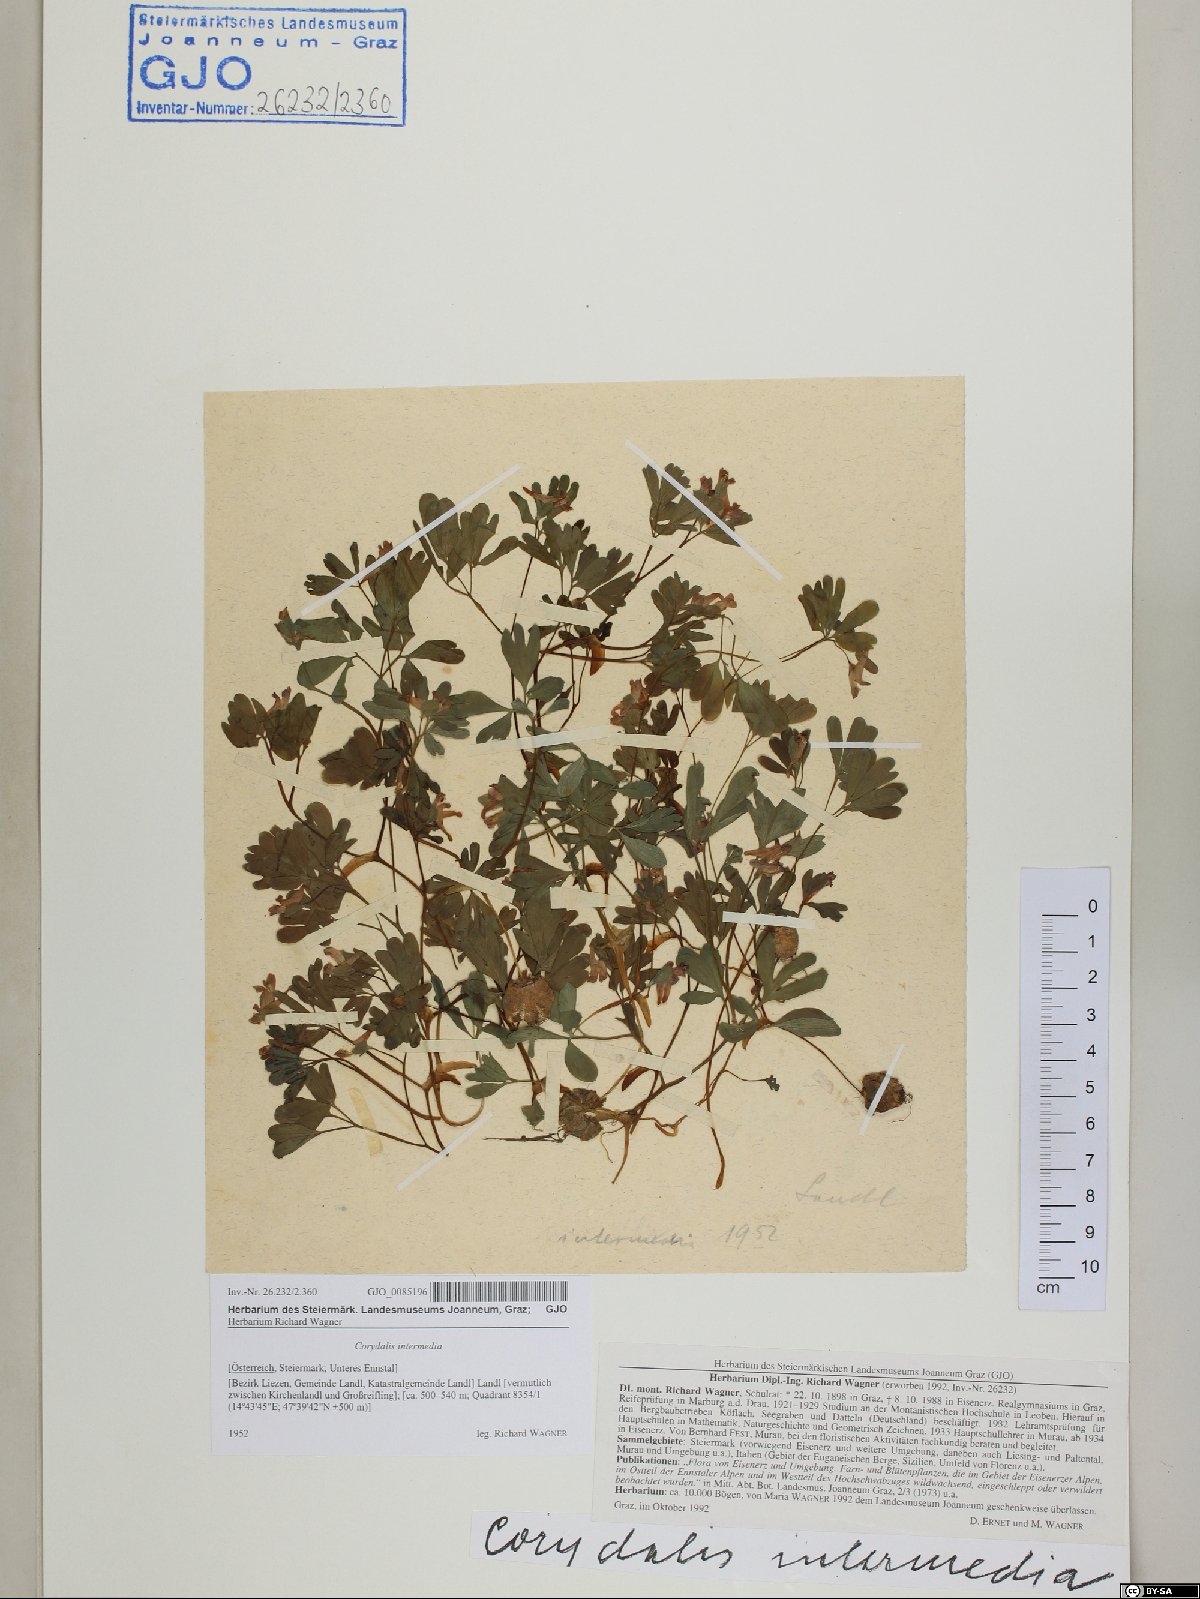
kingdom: Plantae
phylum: Tracheophyta
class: Magnoliopsida
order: Ranunculales
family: Papaveraceae
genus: Corydalis
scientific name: Corydalis intermedia
